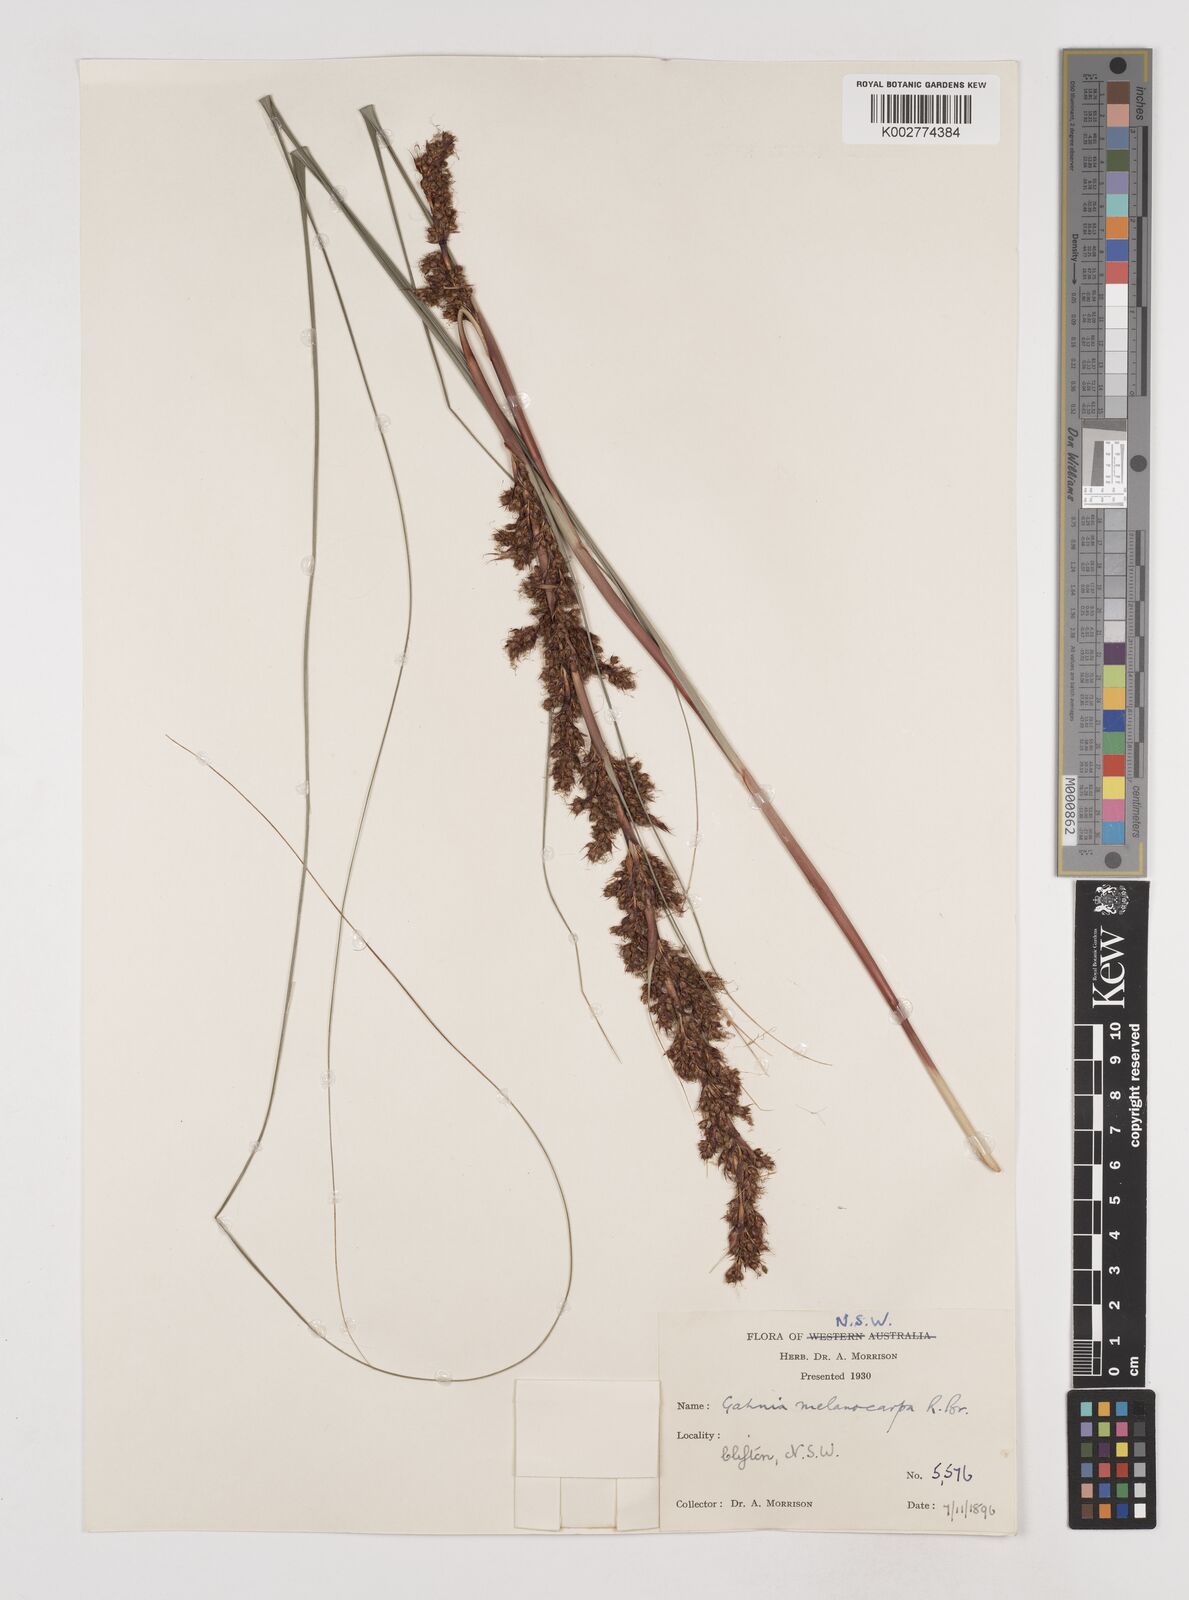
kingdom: Plantae
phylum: Tracheophyta
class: Liliopsida
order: Poales
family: Cyperaceae
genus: Gahnia
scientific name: Gahnia melanocarpa
